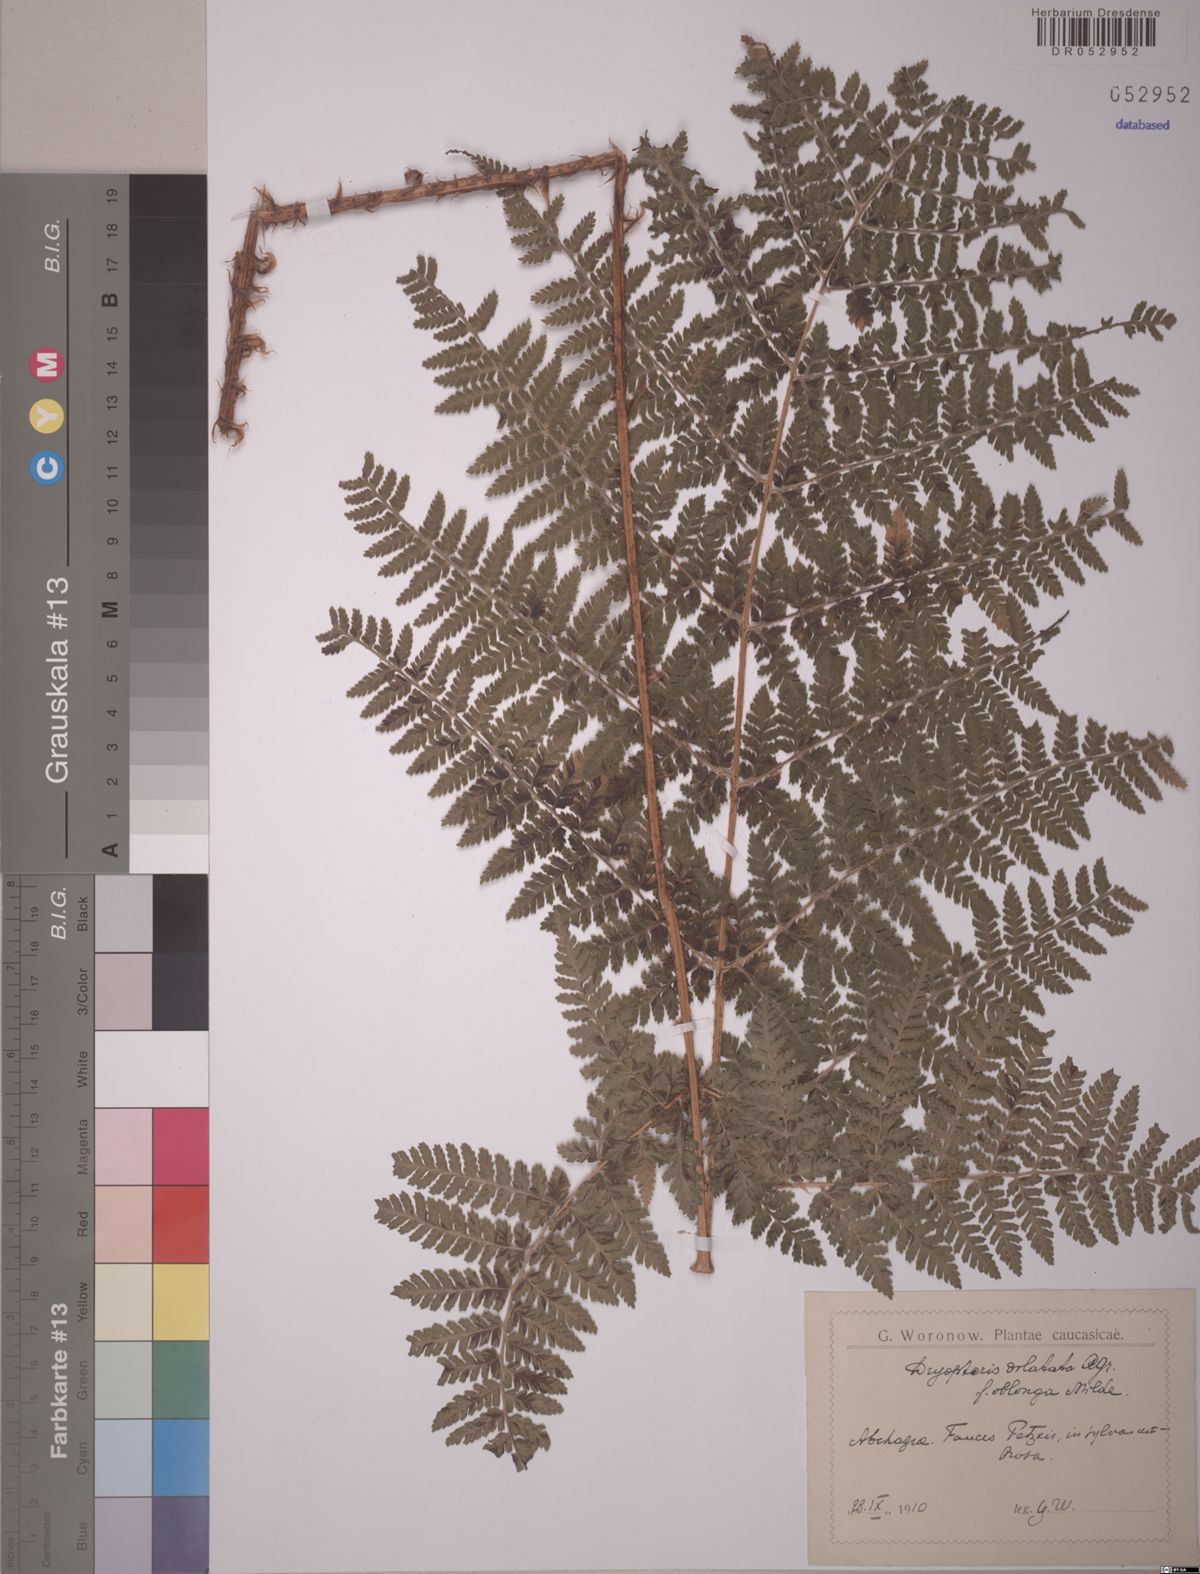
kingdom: Plantae
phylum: Tracheophyta
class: Polypodiopsida
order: Polypodiales
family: Dryopteridaceae
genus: Dryopteris
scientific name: Dryopteris dilatata
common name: Broad buckler-fern
